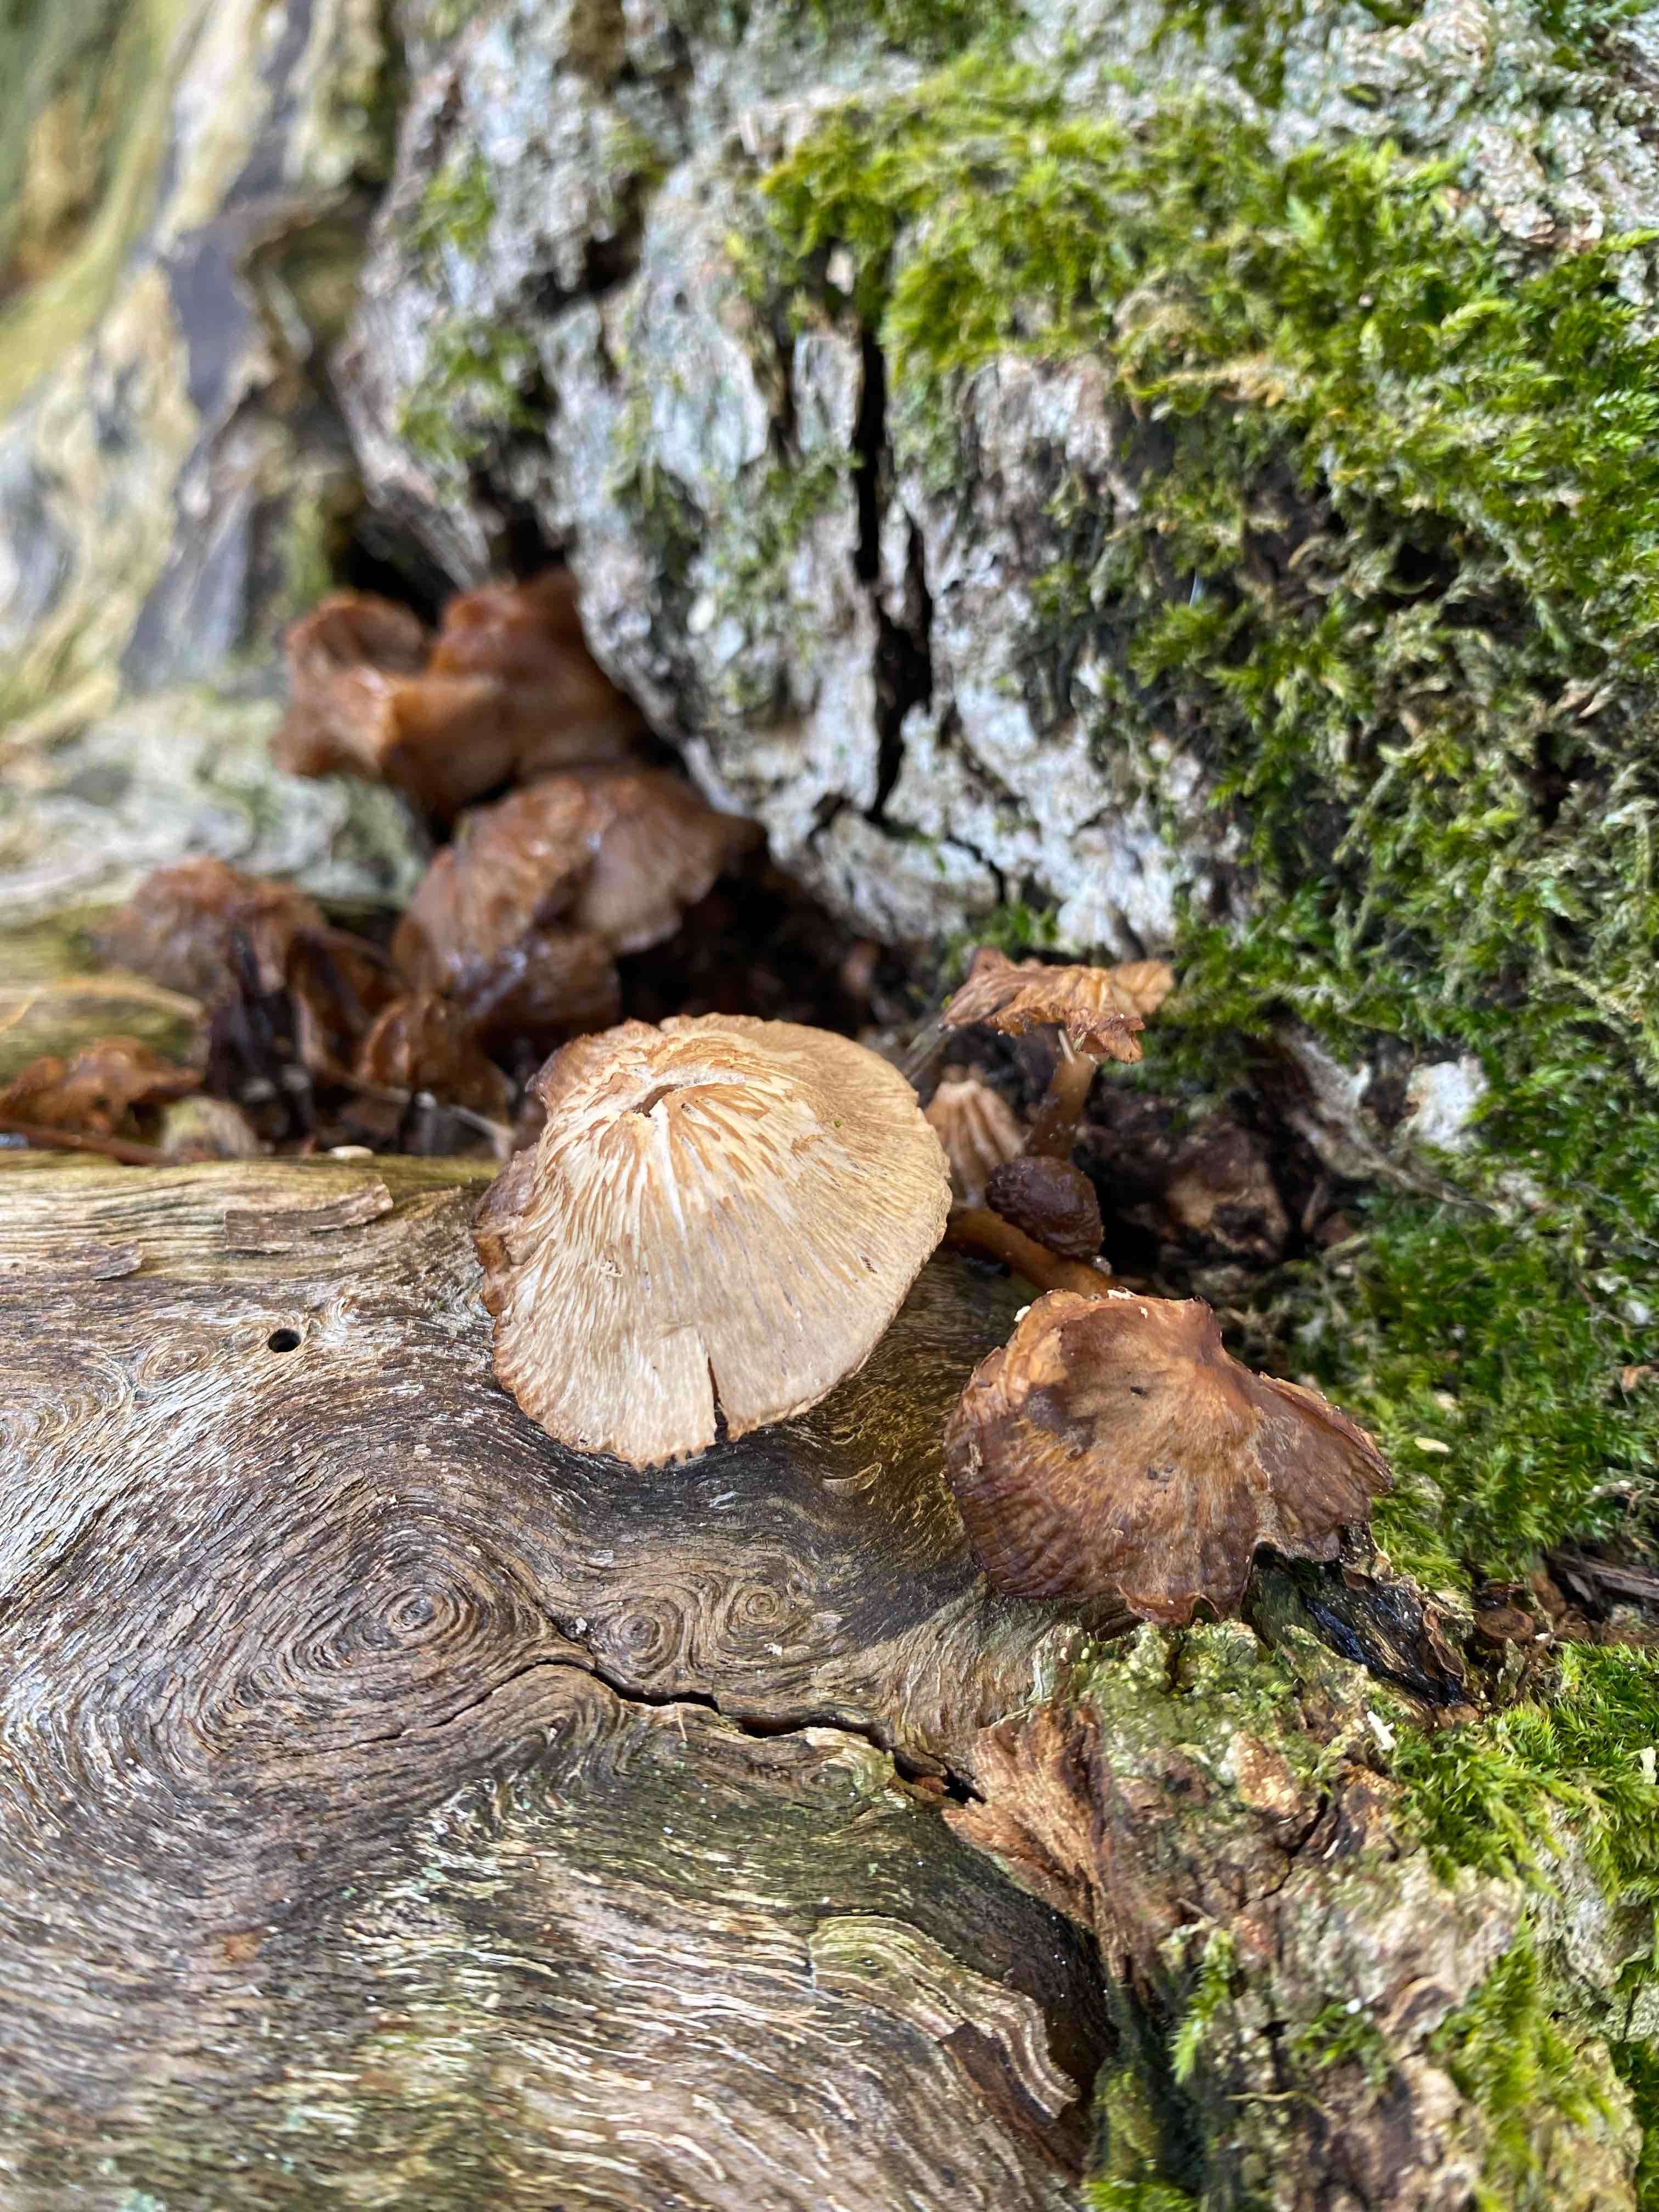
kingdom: Fungi
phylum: Basidiomycota
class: Agaricomycetes
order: Agaricales
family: Mycenaceae
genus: Mycena
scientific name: Mycena galericulata
